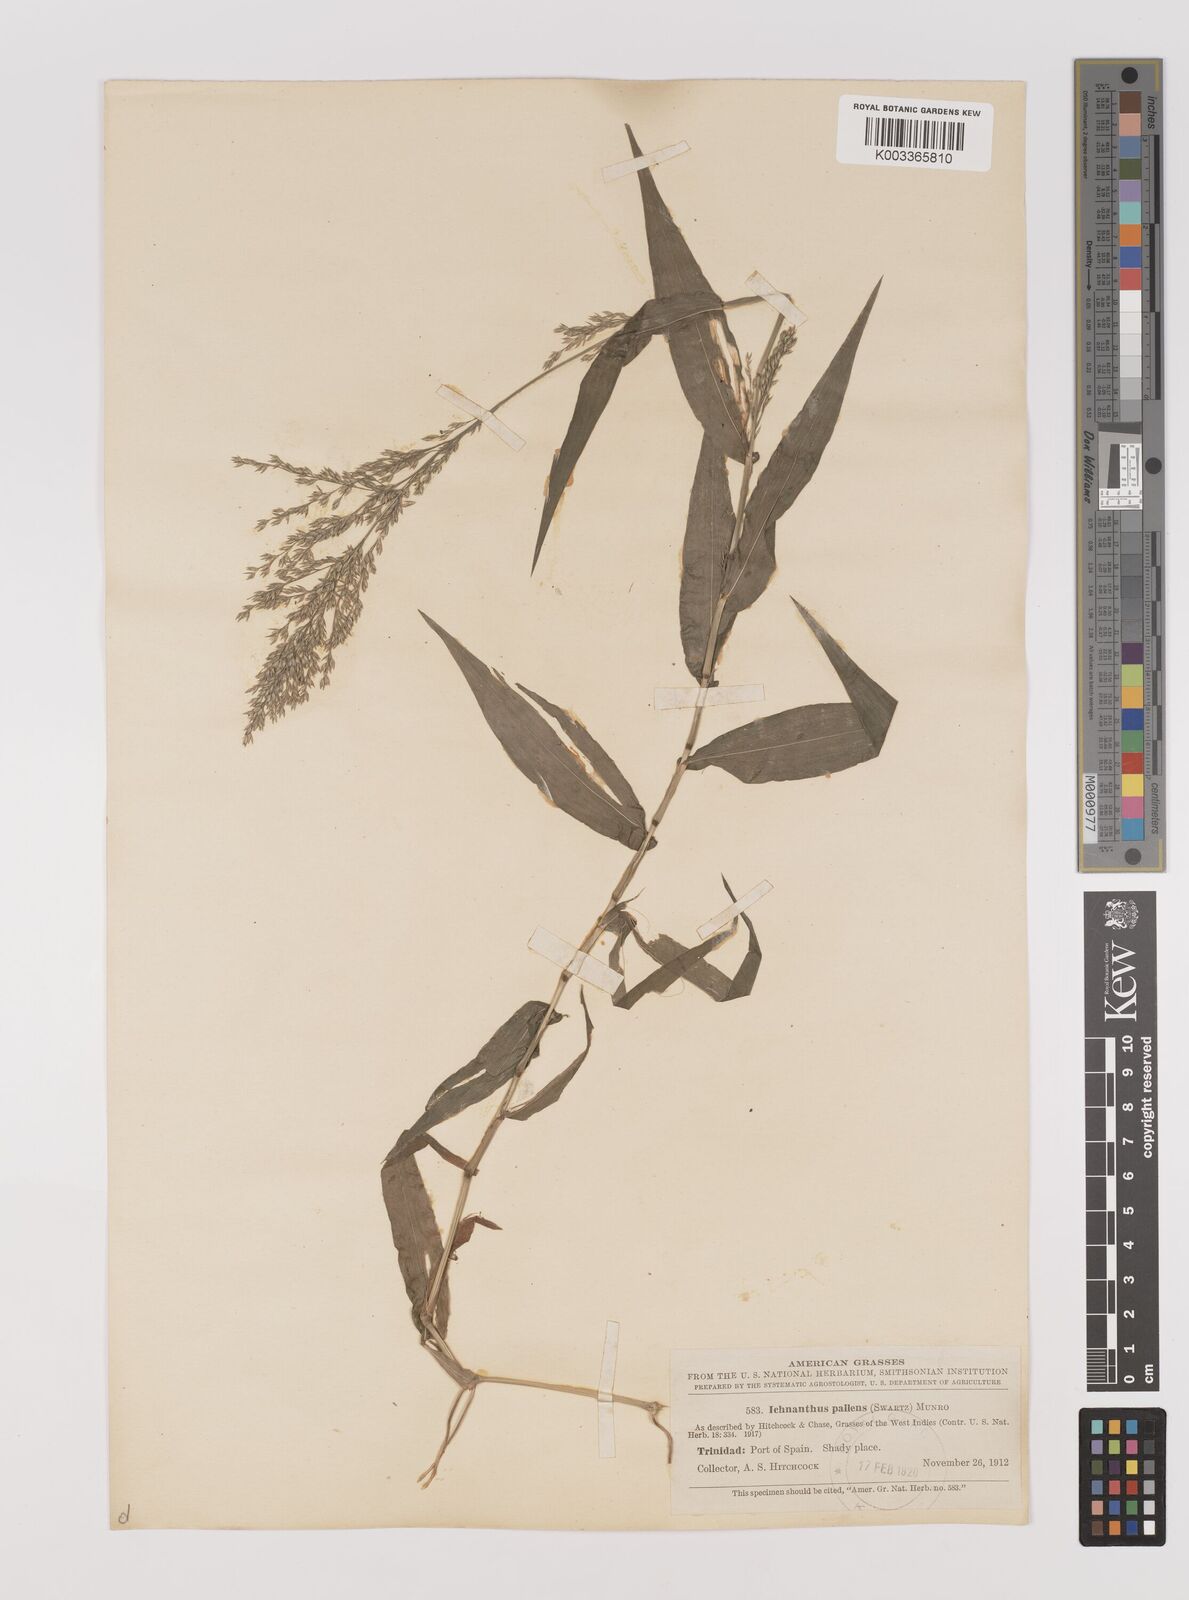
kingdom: Plantae
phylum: Tracheophyta
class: Liliopsida
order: Poales
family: Poaceae
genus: Ichnanthus
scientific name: Ichnanthus pallens
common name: Water grass
